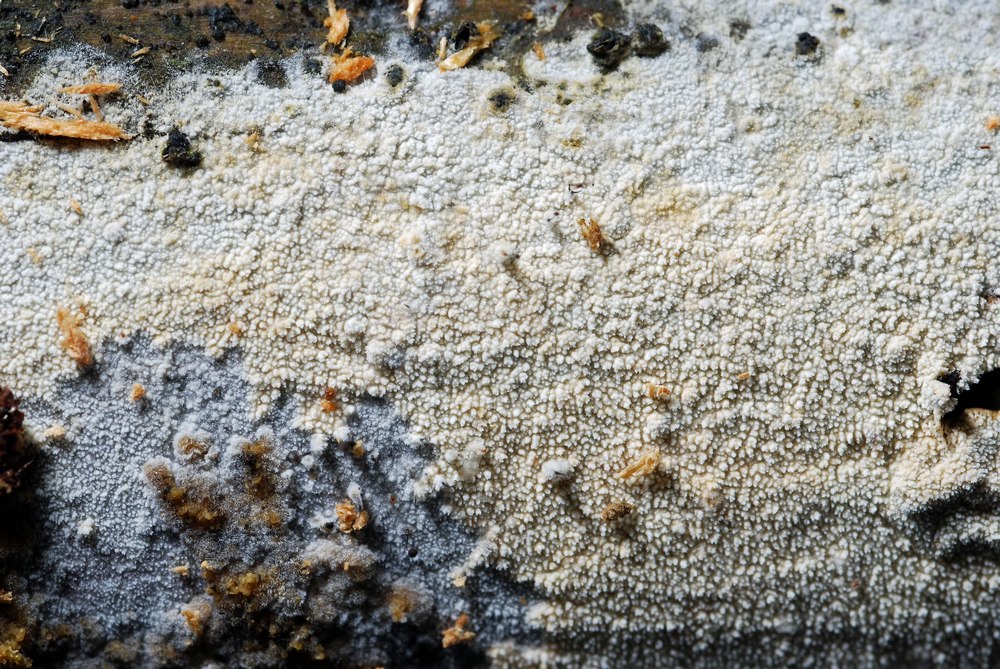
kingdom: Fungi
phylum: Basidiomycota
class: Agaricomycetes
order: Hymenochaetales
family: Schizoporaceae
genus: Xylodon
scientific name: Xylodon nesporii
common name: fintandet tandsvamp
